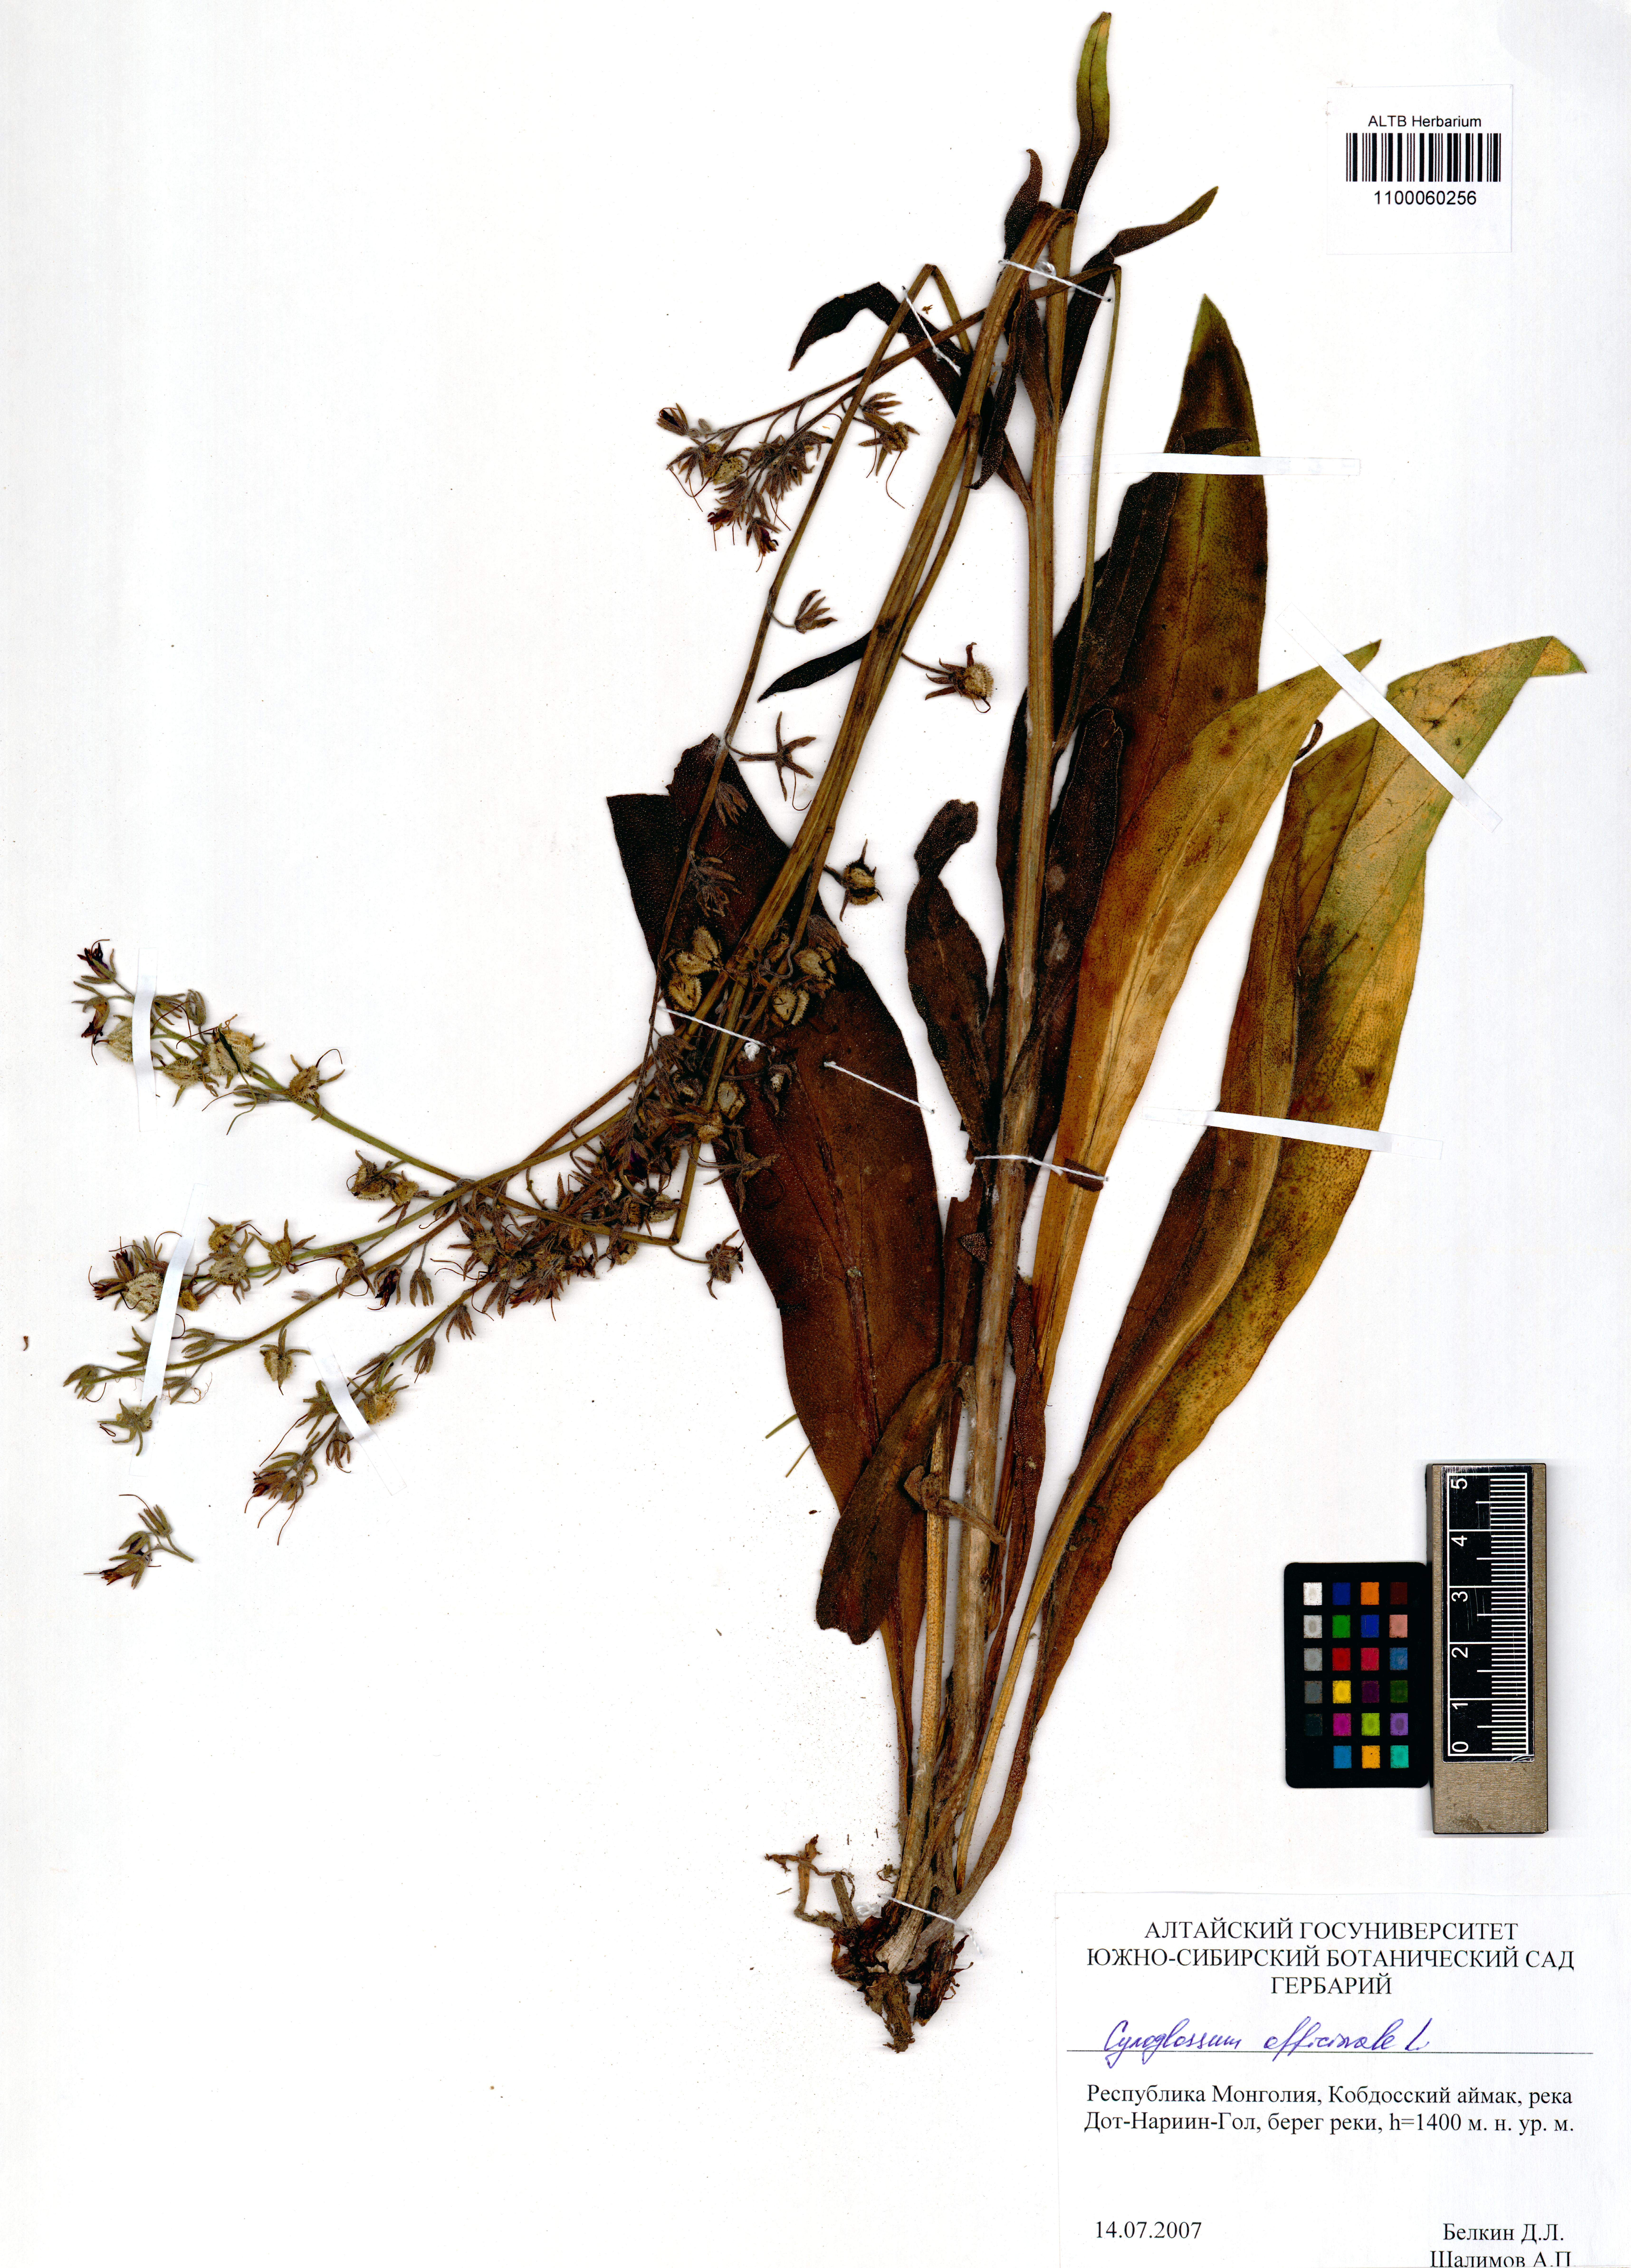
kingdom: Plantae
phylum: Tracheophyta
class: Magnoliopsida
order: Boraginales
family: Boraginaceae
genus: Cynoglossum
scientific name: Cynoglossum officinale
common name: Hound's-tongue
